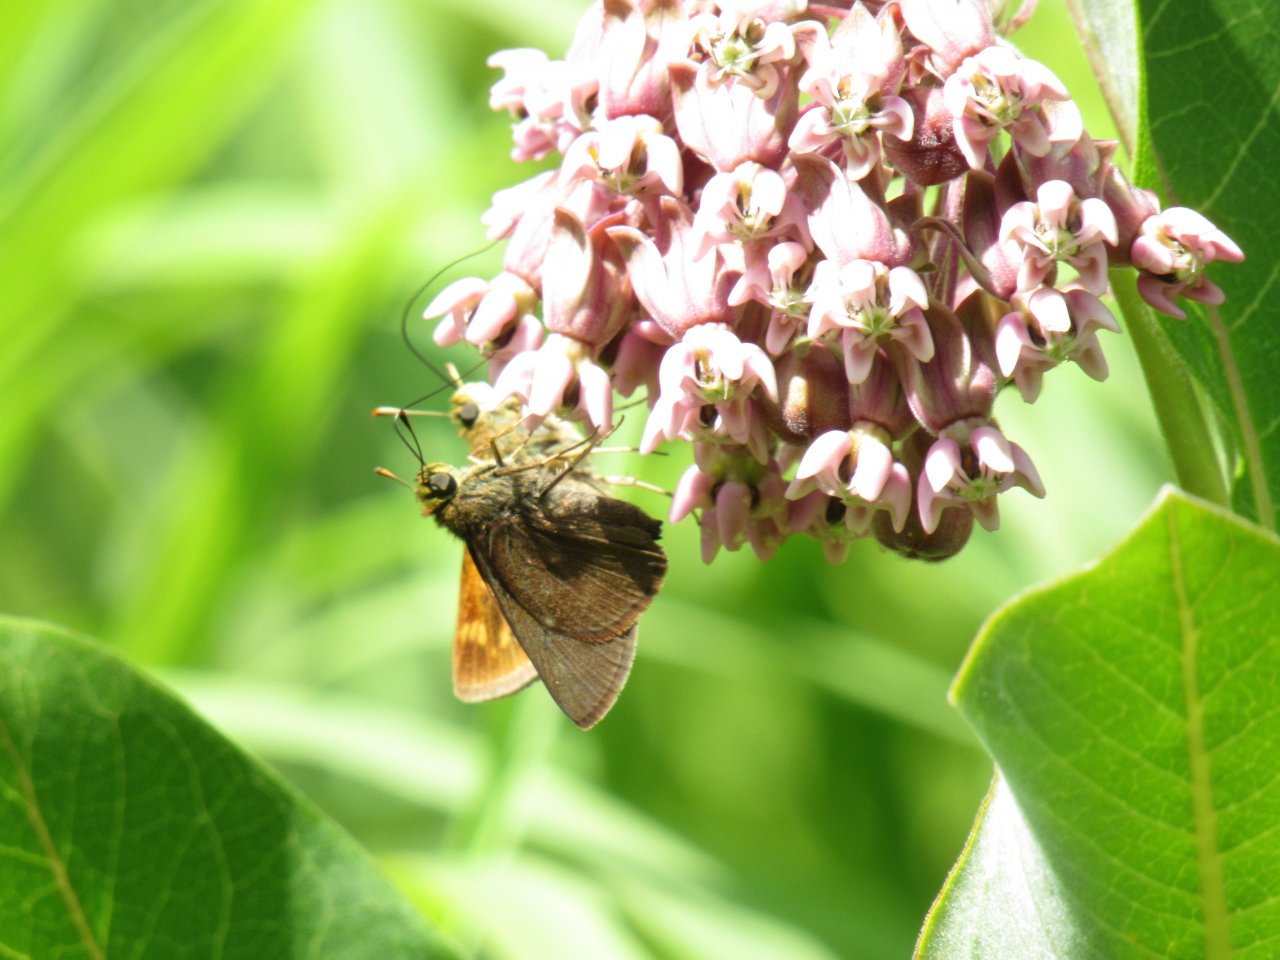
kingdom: Animalia
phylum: Arthropoda
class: Insecta
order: Lepidoptera
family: Hesperiidae
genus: Euphyes
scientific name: Euphyes vestris
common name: Dun Skipper
